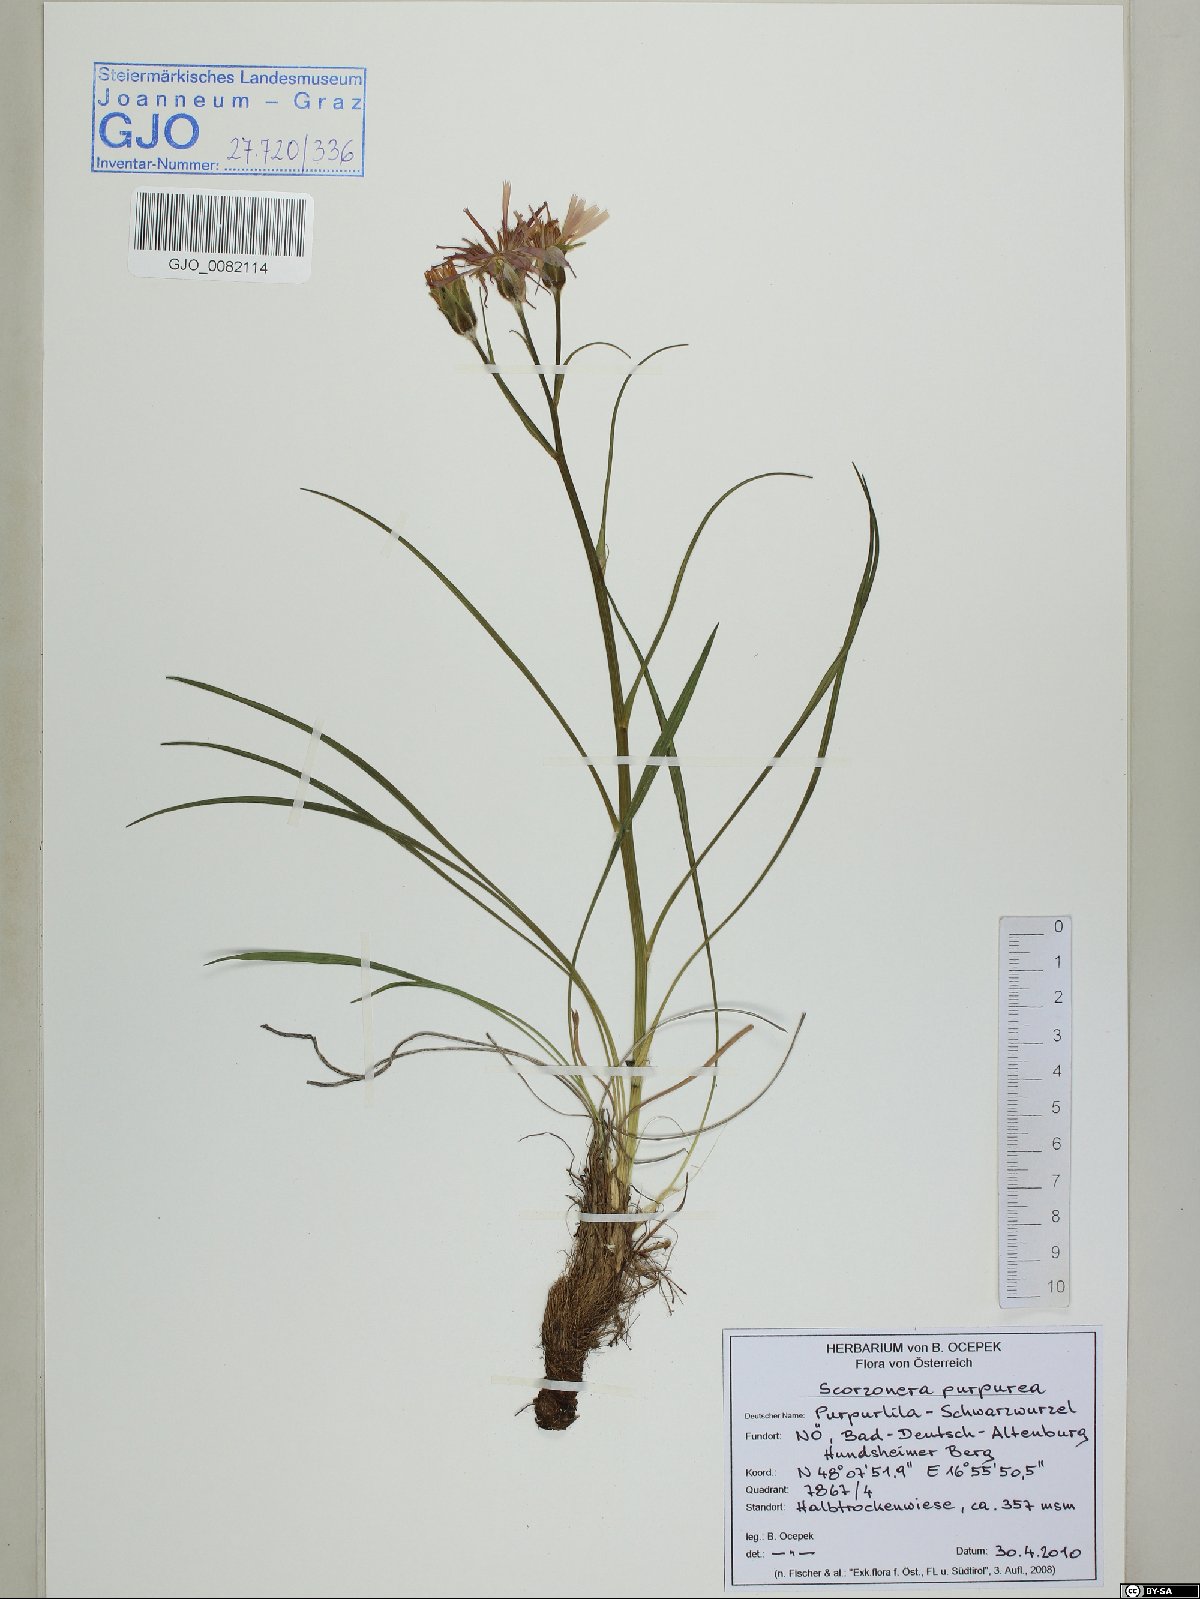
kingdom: Plantae
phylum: Tracheophyta
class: Magnoliopsida
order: Asterales
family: Asteraceae
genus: Scorzonera
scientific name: Scorzonera purpurea
